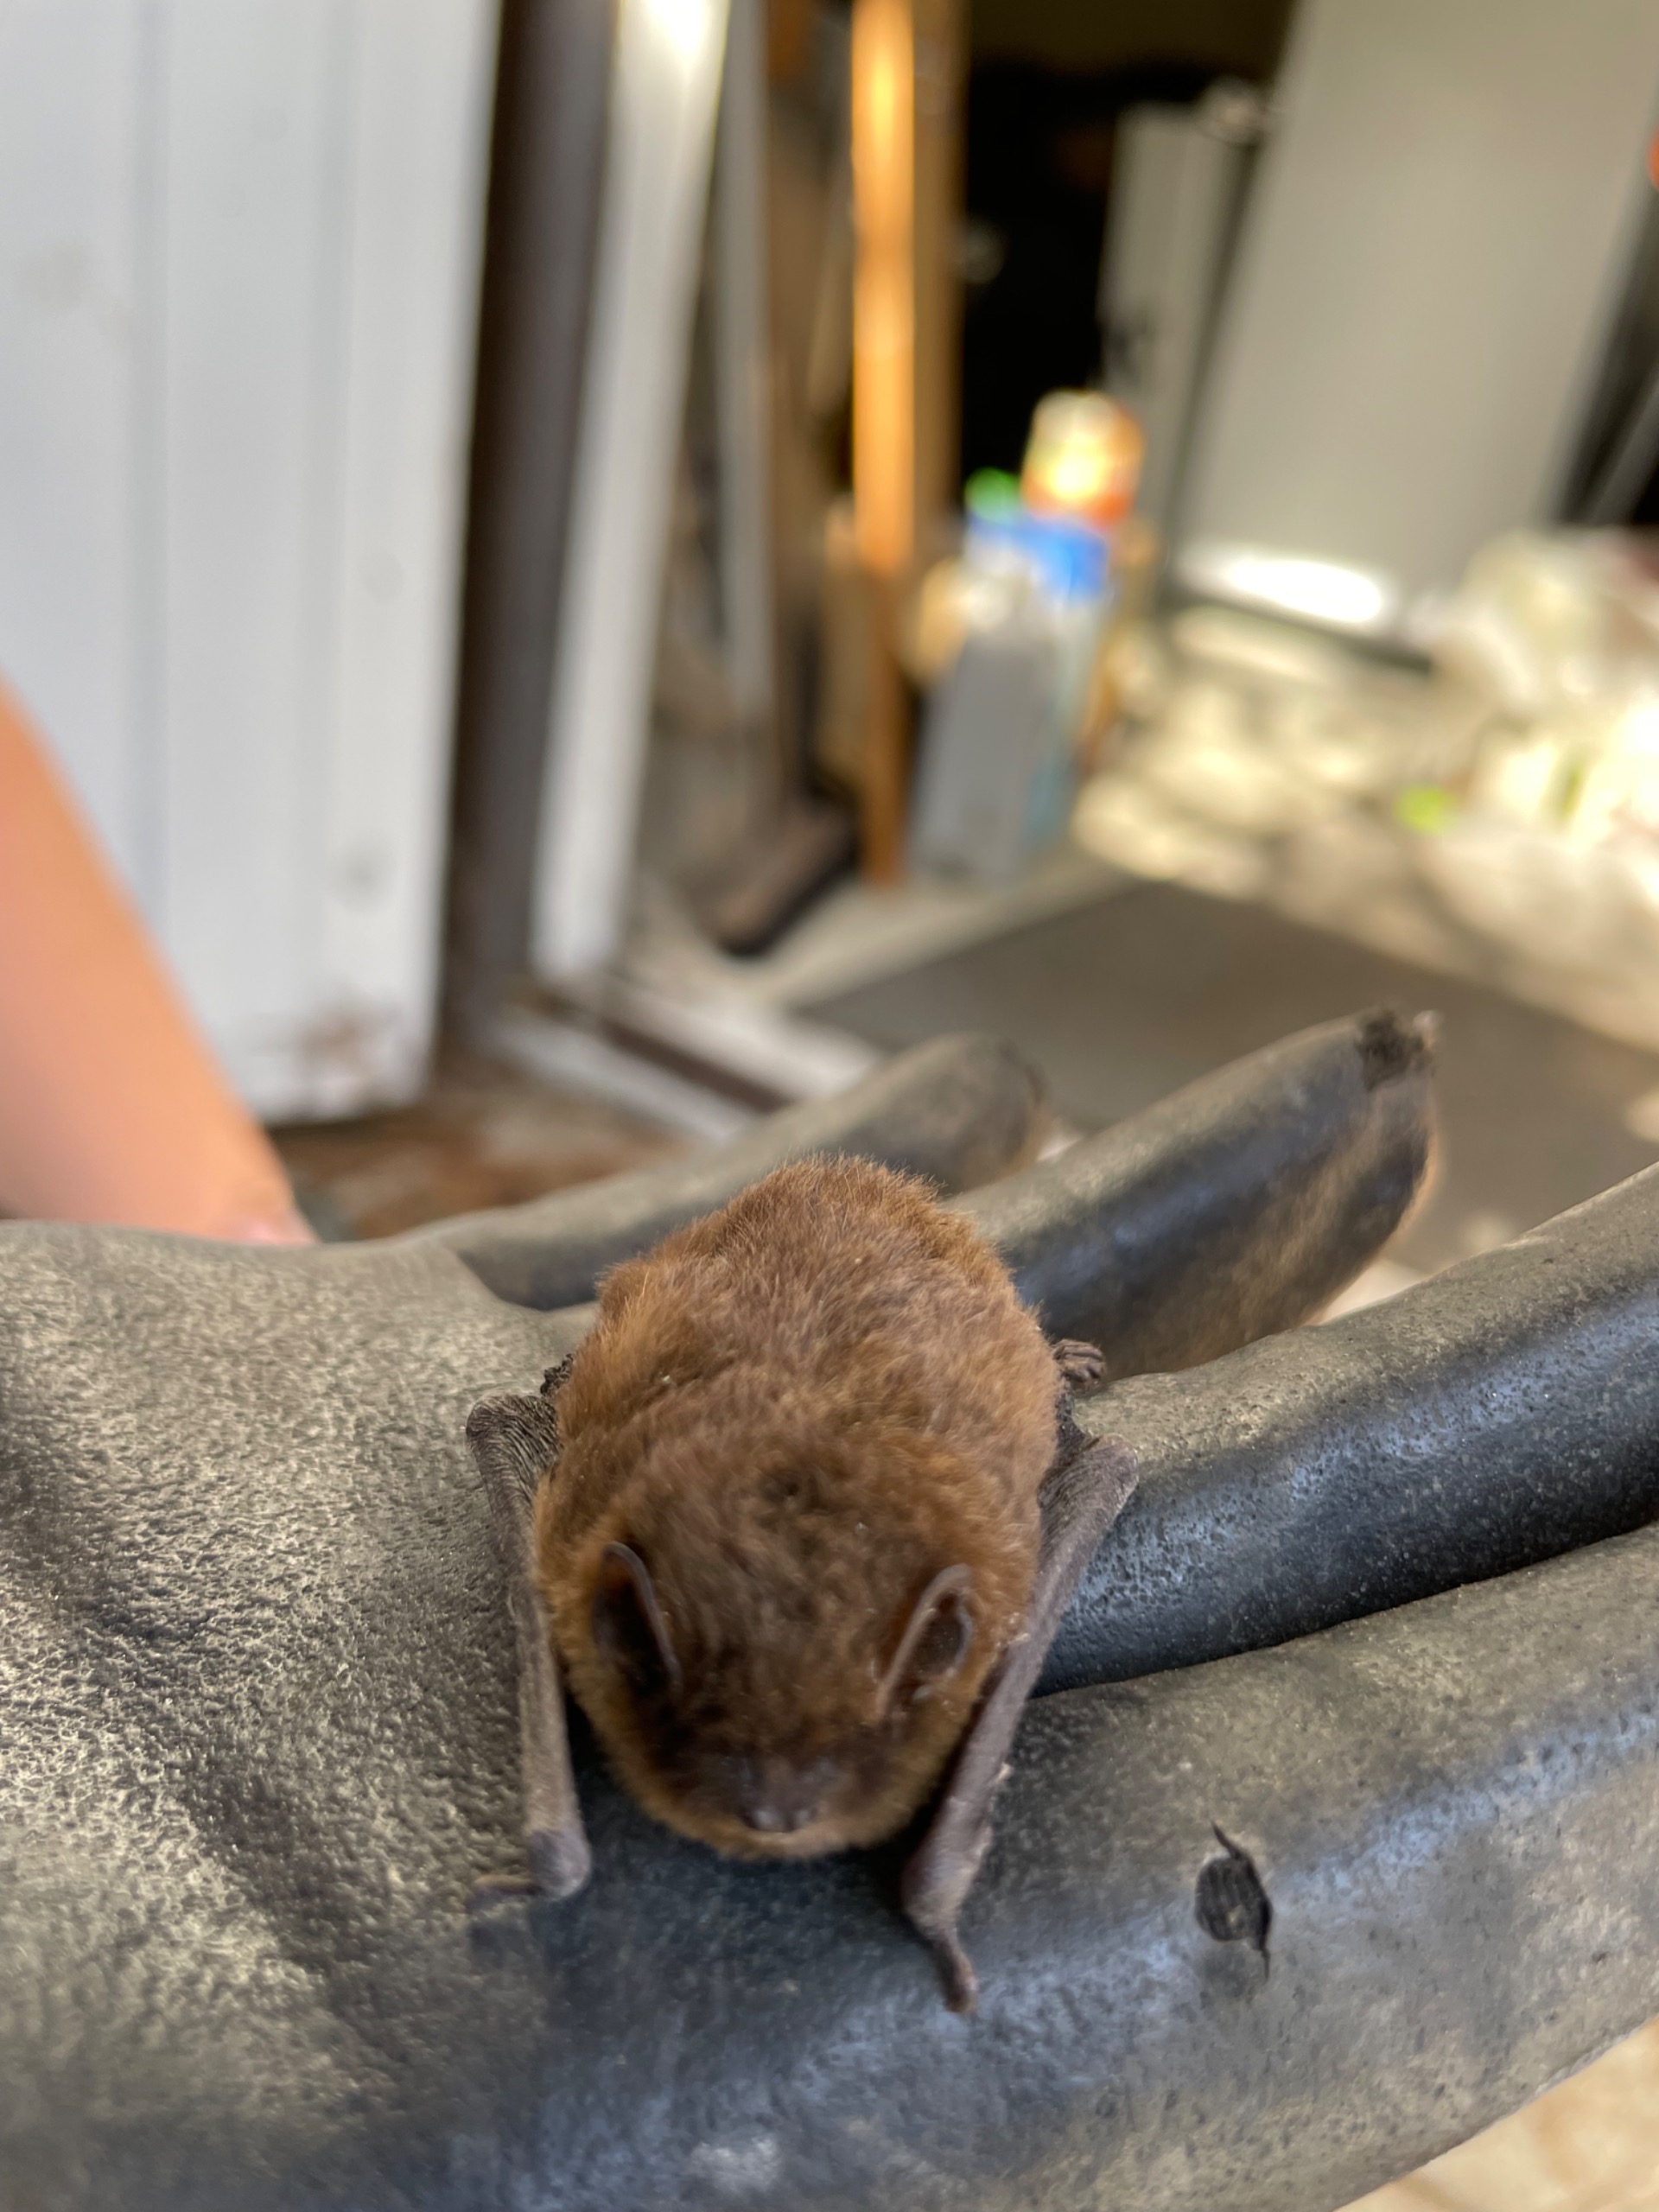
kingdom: Animalia
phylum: Chordata
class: Mammalia
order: Chiroptera
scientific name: Chiroptera
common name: Flagermus
